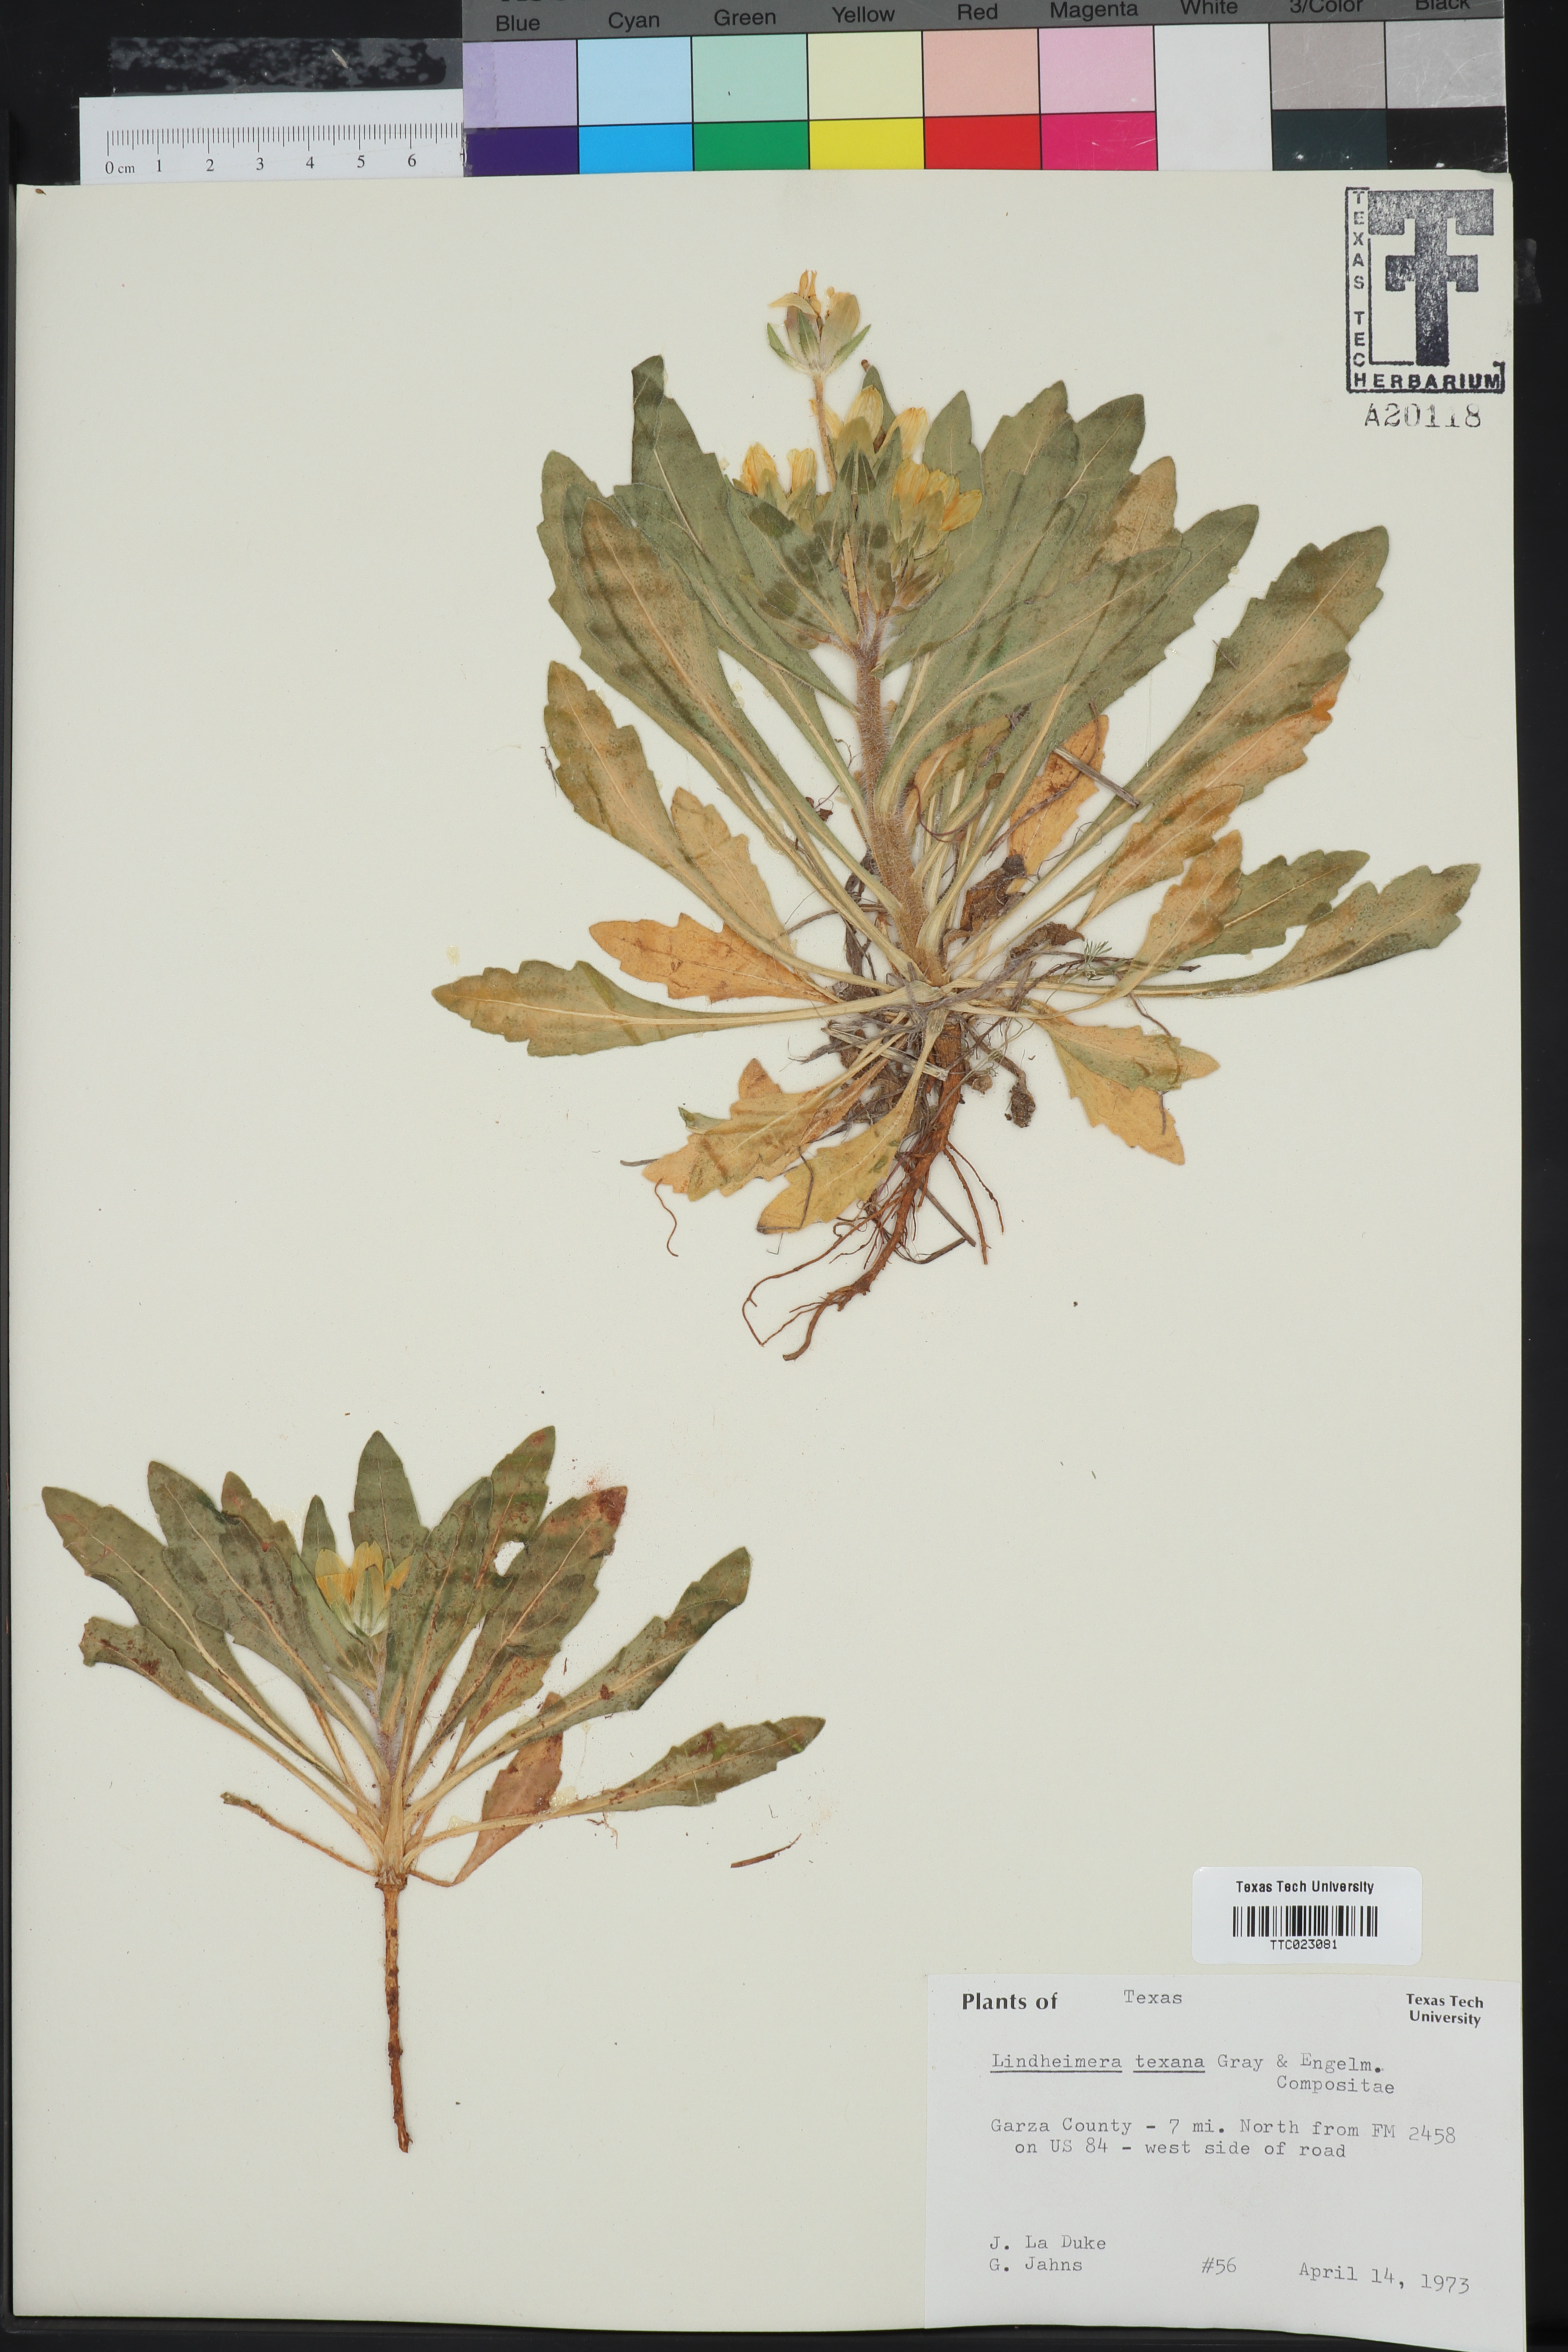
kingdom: Plantae
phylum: Tracheophyta
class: Magnoliopsida
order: Asterales
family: Asteraceae
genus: Lindheimera
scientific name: Lindheimera texana
